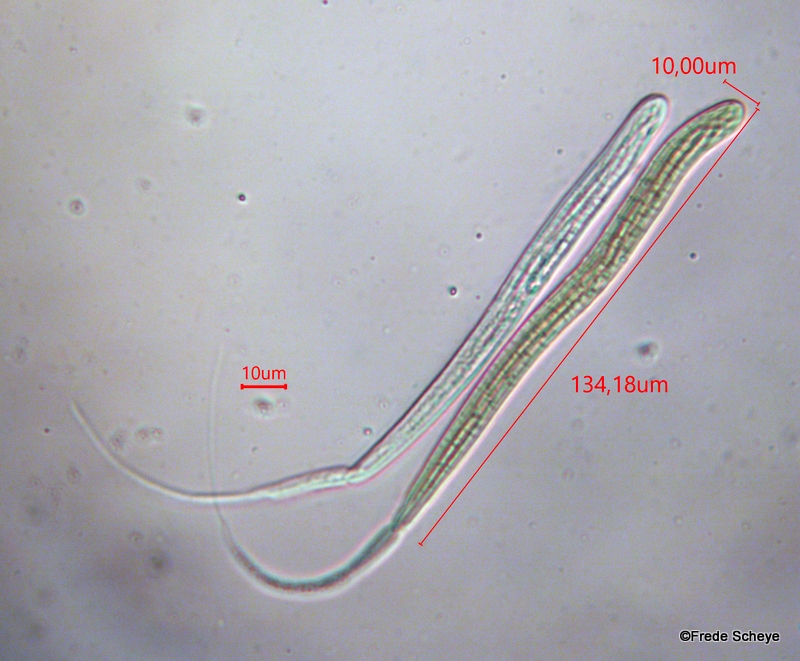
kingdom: Fungi
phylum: Ascomycota
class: Dothideomycetes
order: Pleosporales
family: Phaeosphaeriaceae
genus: Ophiobolus
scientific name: Ophiobolus acuminatus
